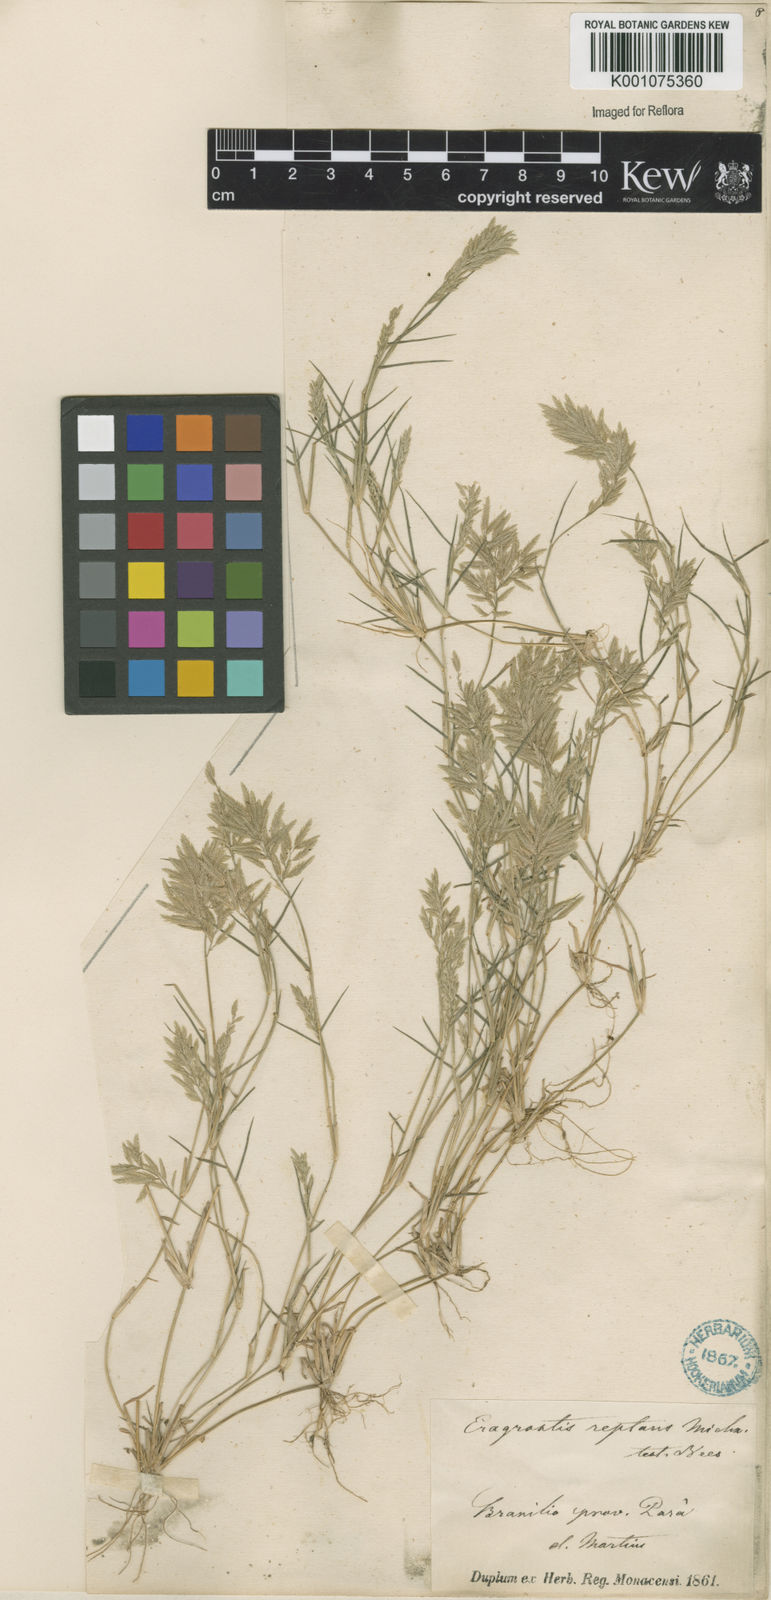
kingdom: Plantae
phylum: Tracheophyta
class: Liliopsida
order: Poales
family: Poaceae
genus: Eragrostis
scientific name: Eragrostis
